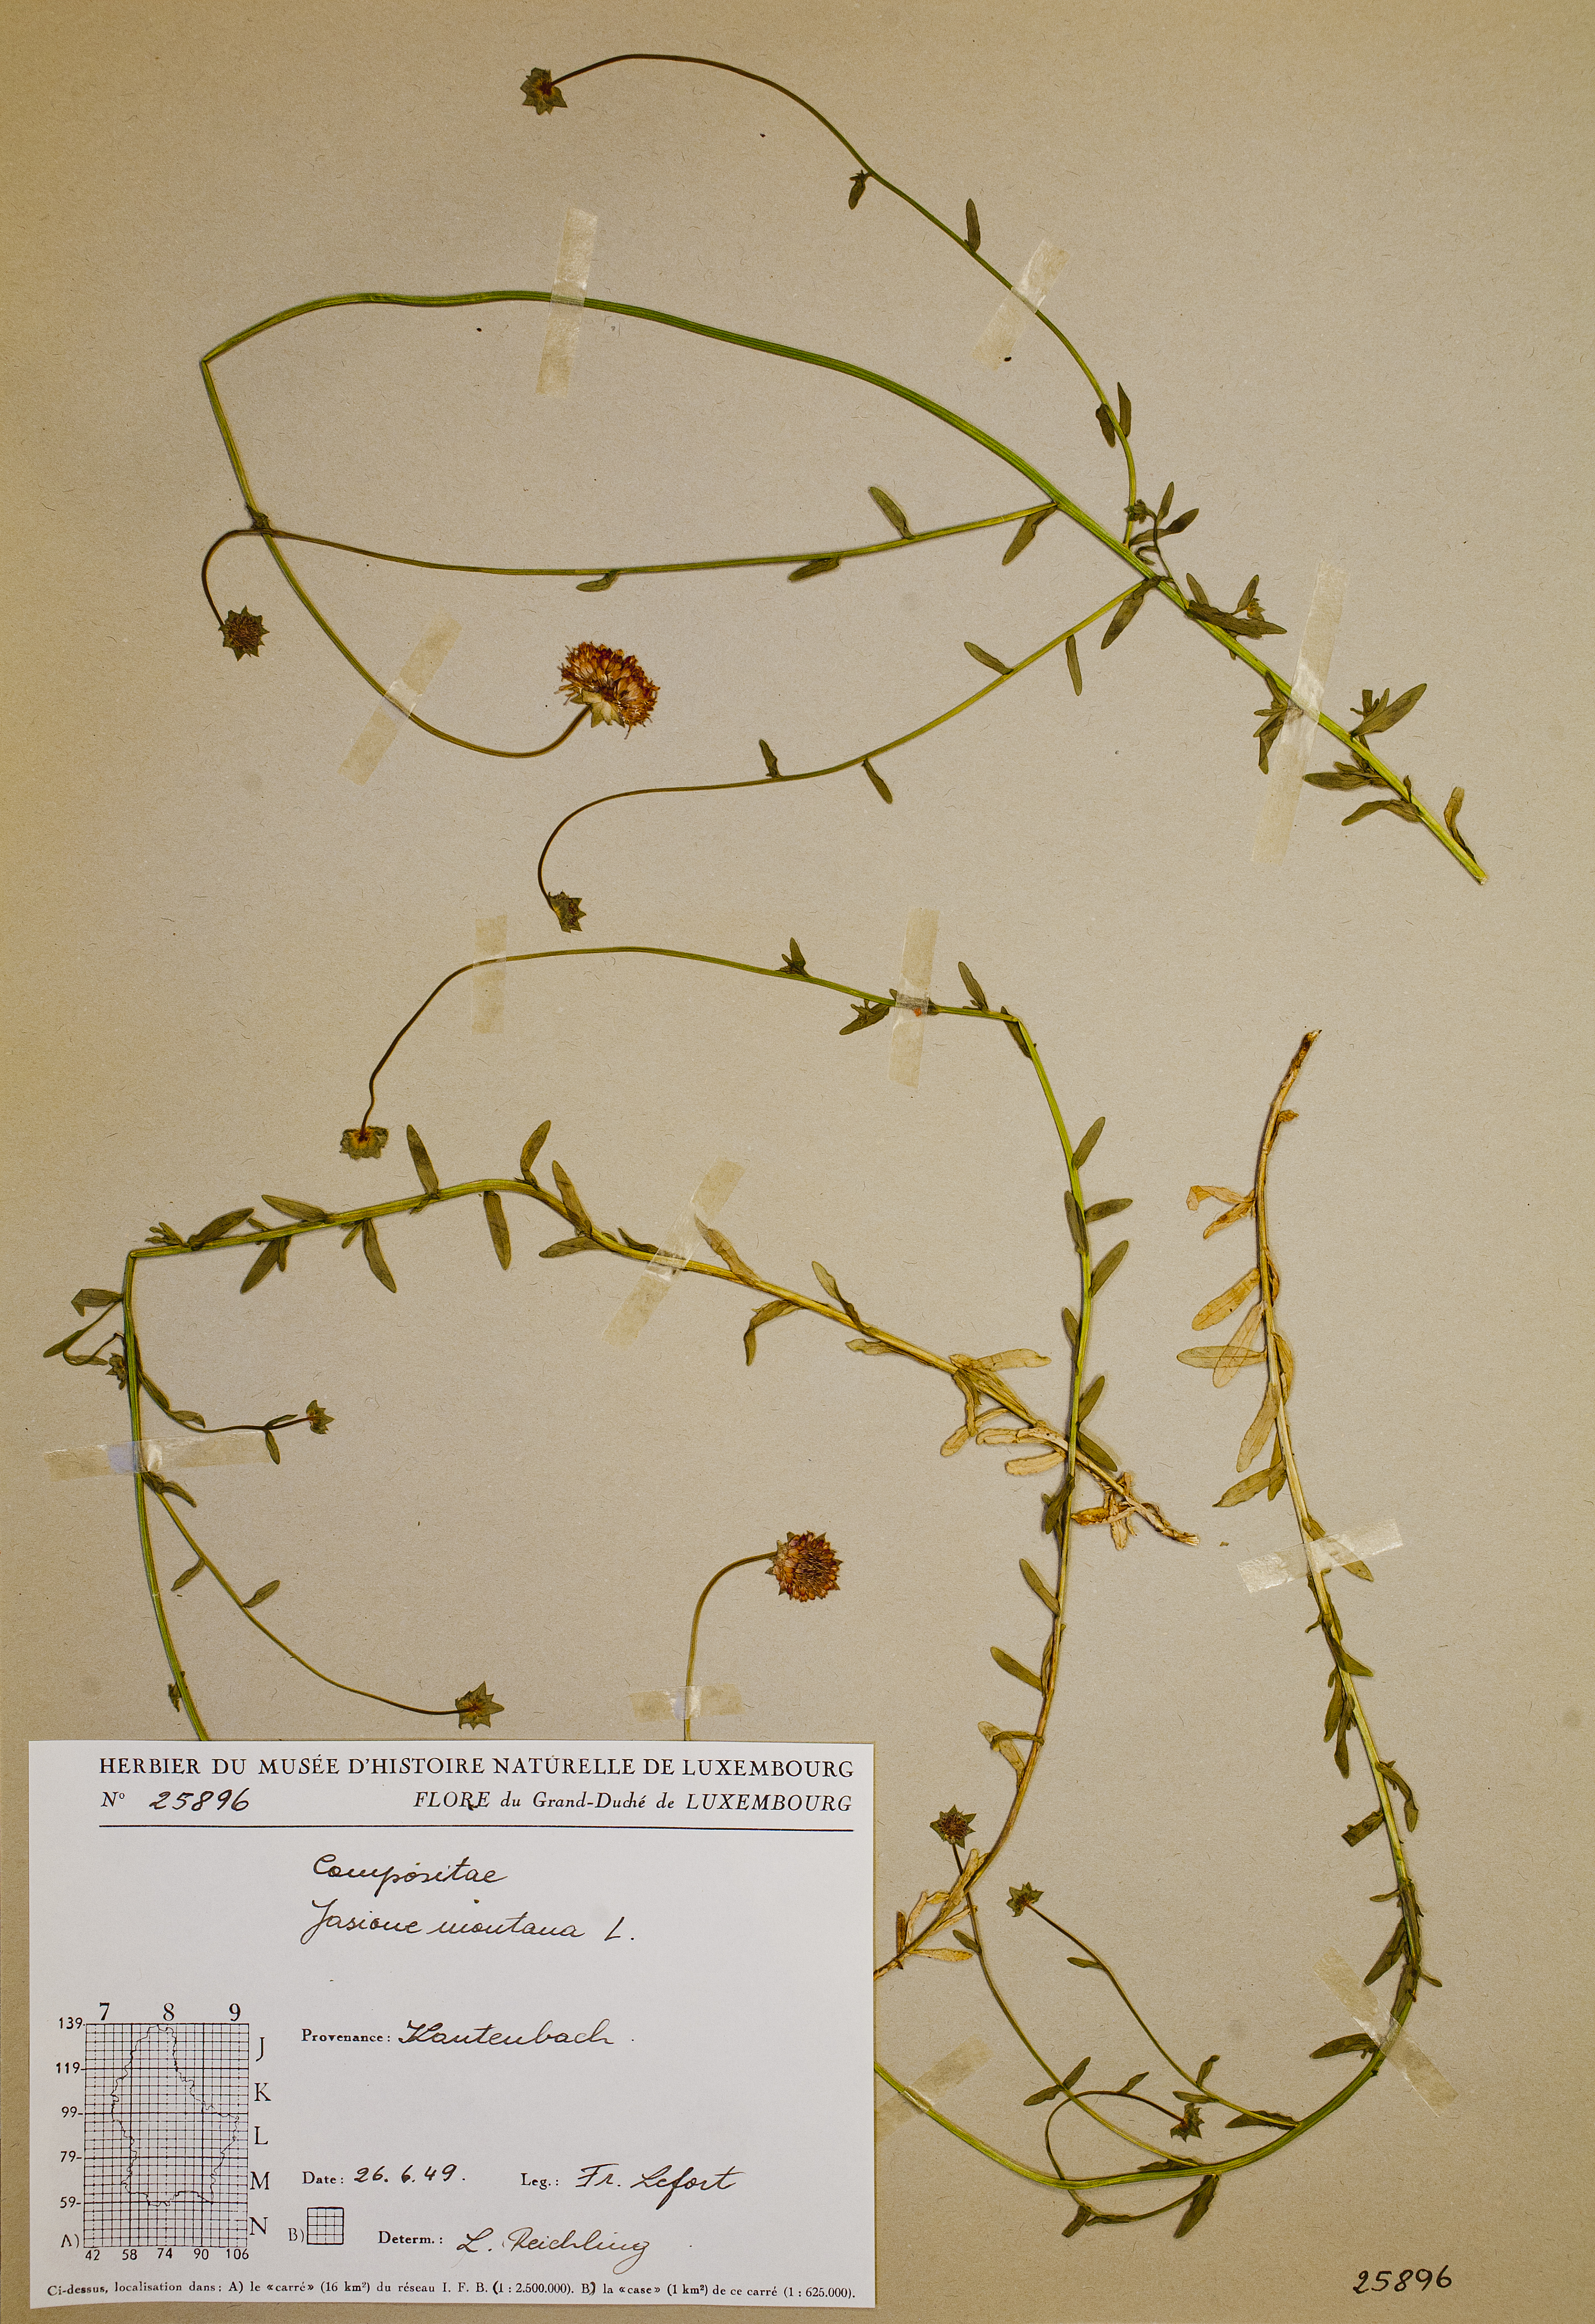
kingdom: Plantae
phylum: Tracheophyta
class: Magnoliopsida
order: Asterales
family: Campanulaceae
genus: Jasione
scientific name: Jasione montana
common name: Sheep's-bit
